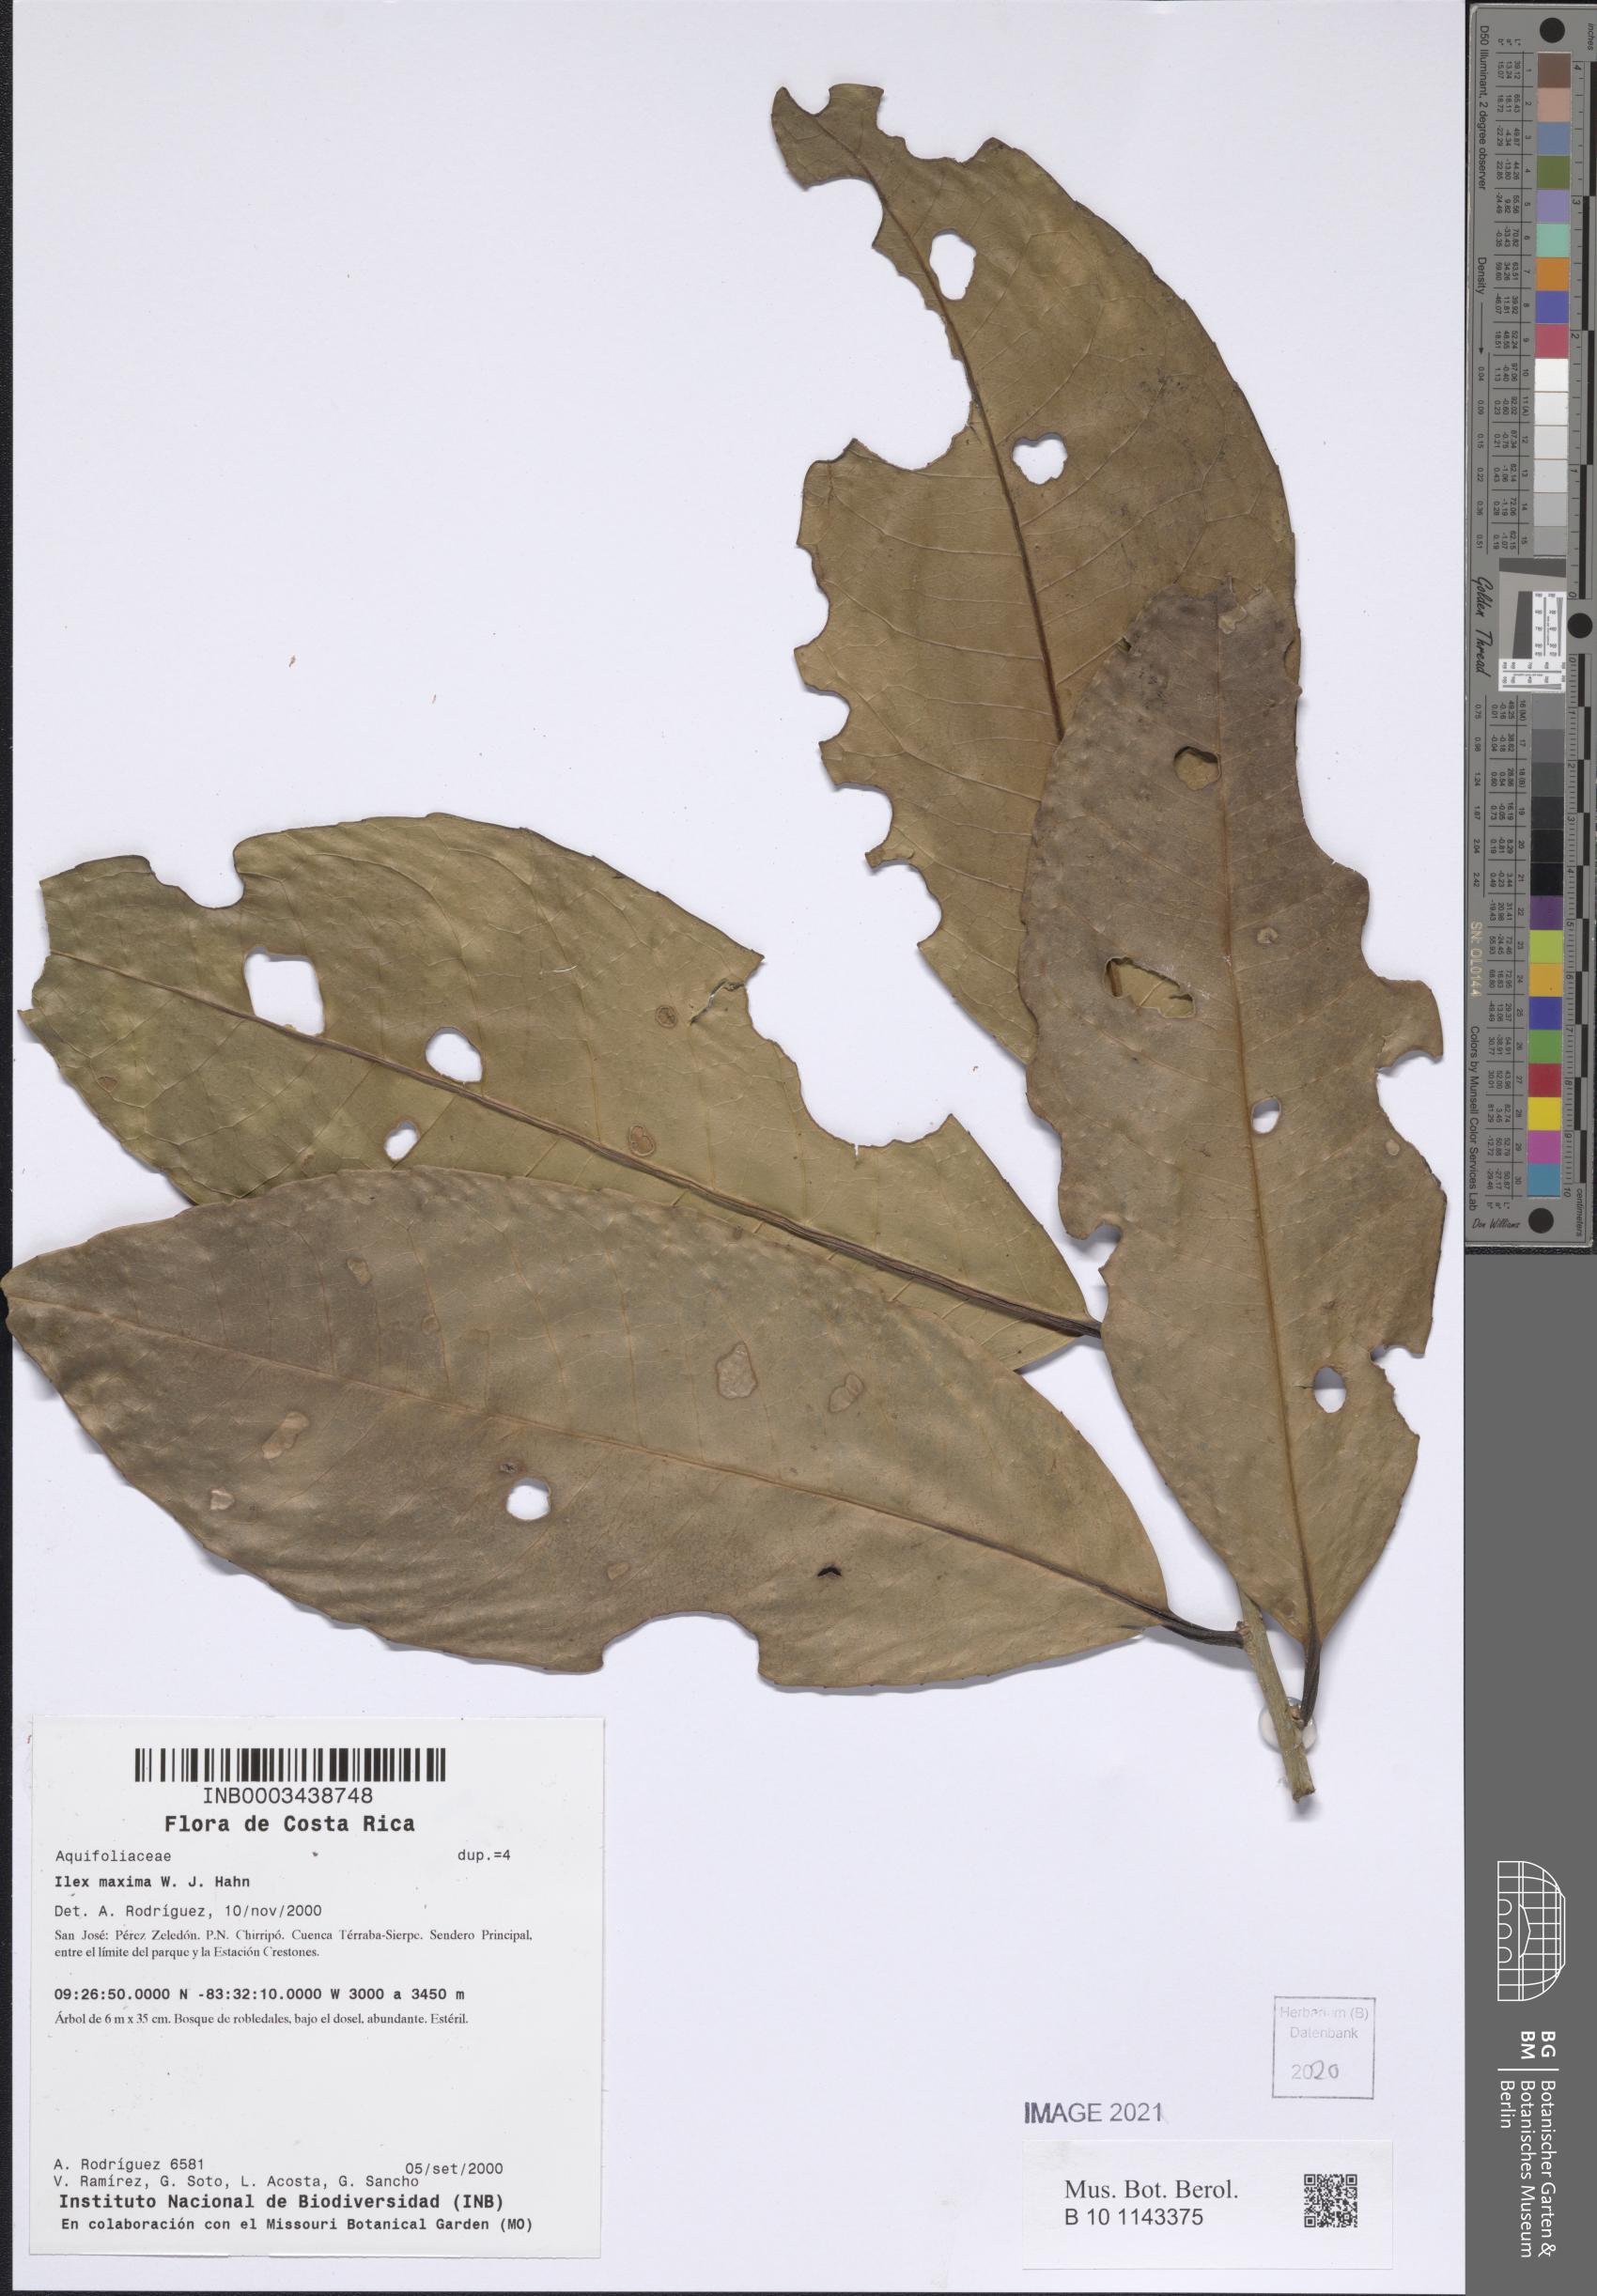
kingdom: Plantae
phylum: Tracheophyta
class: Magnoliopsida
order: Aquifoliales
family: Aquifoliaceae
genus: Ilex
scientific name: Ilex maxima
